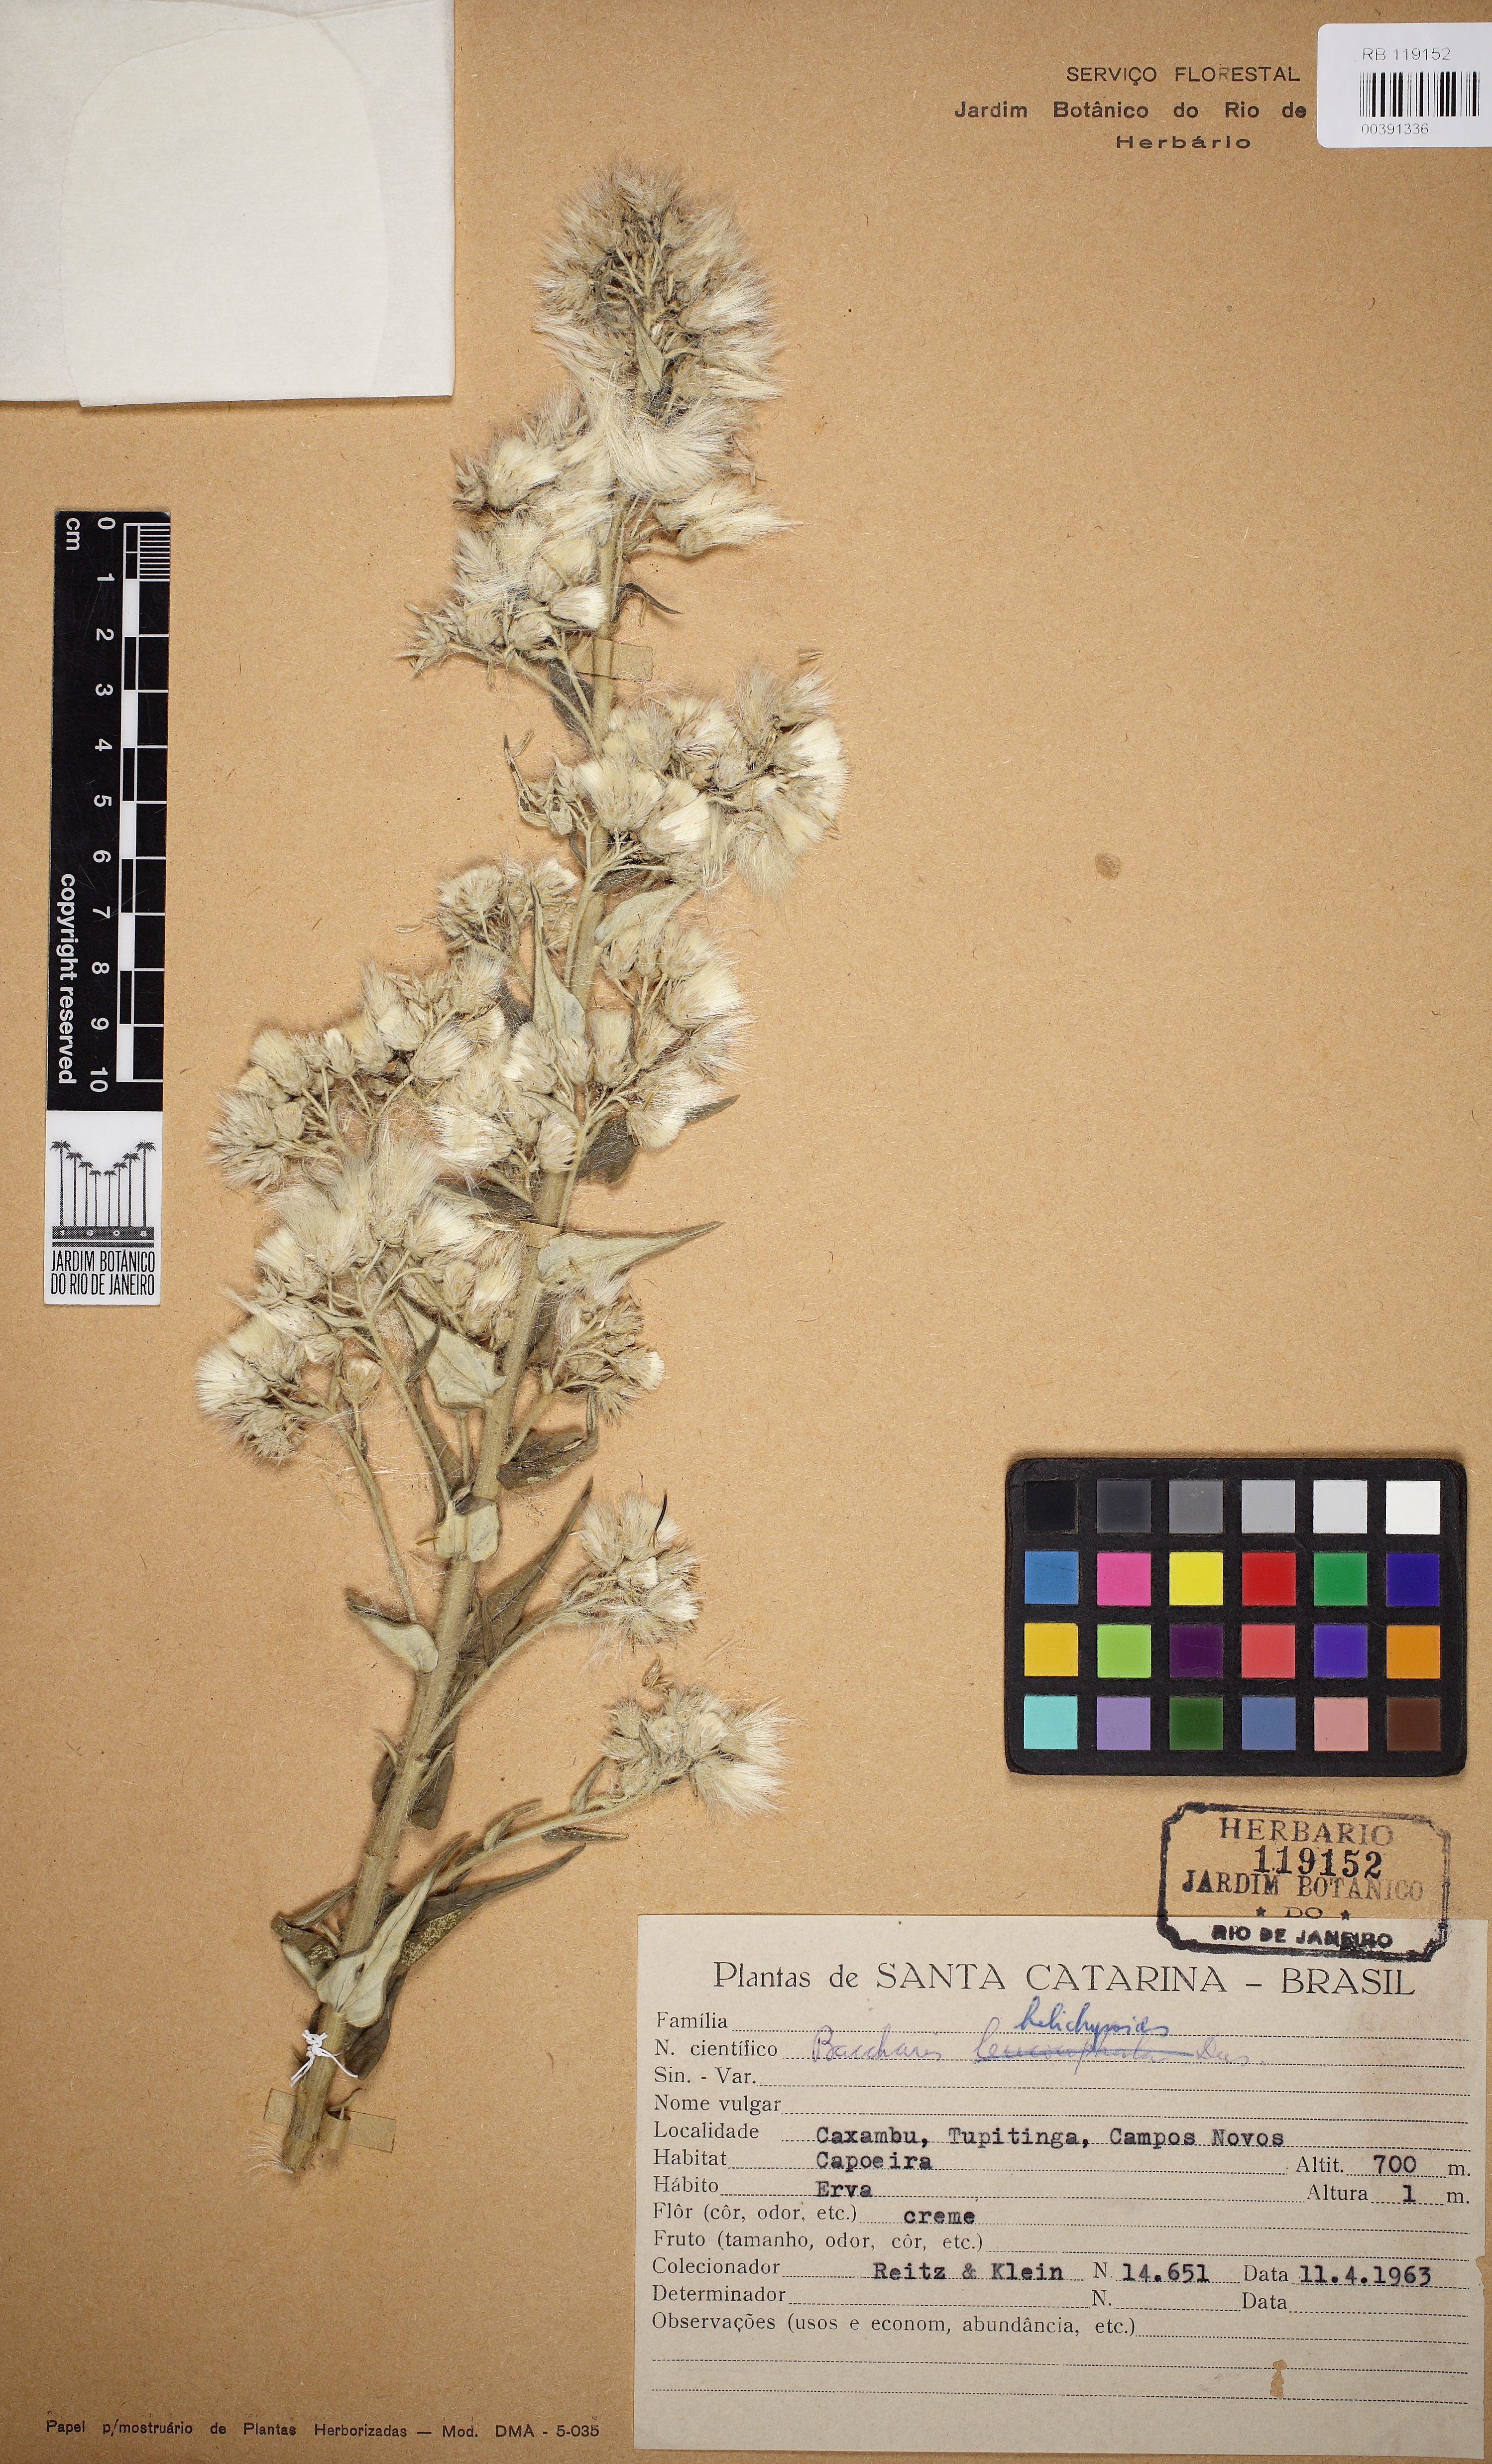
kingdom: Plantae
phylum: Tracheophyta
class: Magnoliopsida
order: Asterales
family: Asteraceae
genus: Baccharis
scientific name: Baccharis helichrysoides
